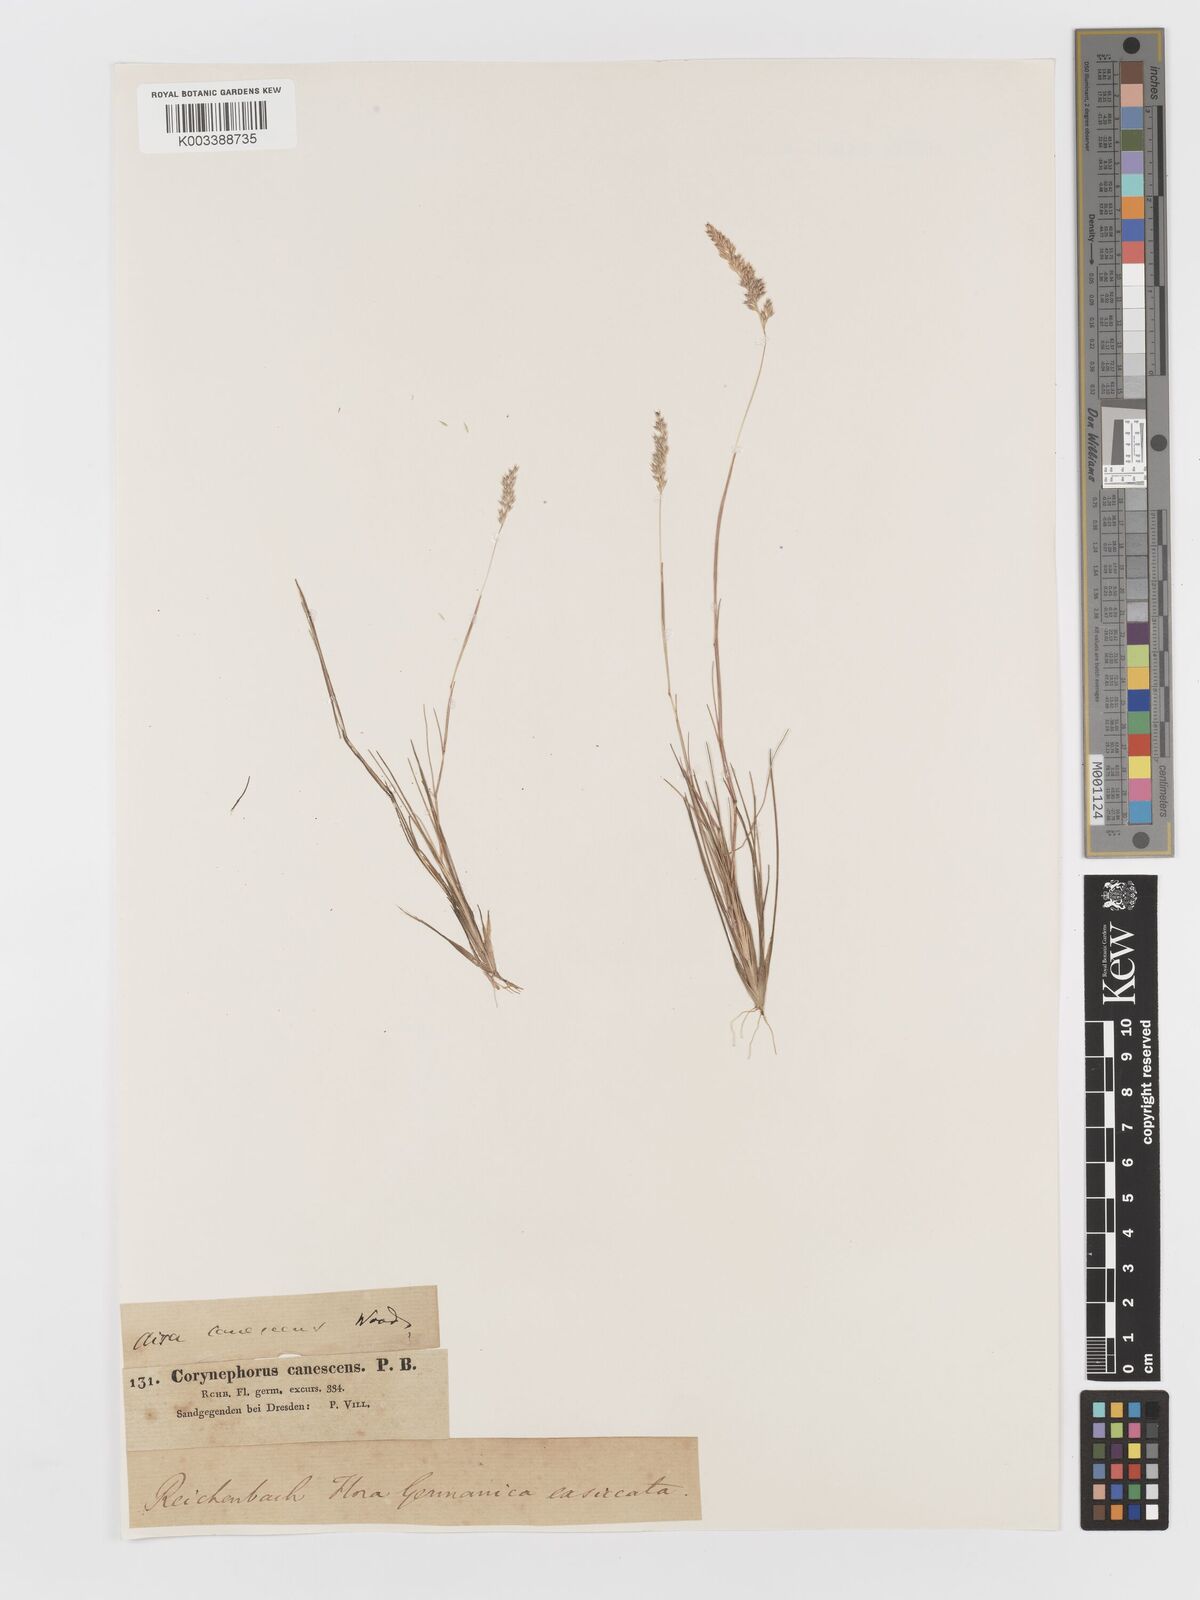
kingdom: Plantae
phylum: Tracheophyta
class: Liliopsida
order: Poales
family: Poaceae
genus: Corynephorus
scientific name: Corynephorus canescens
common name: Grey hair-grass
